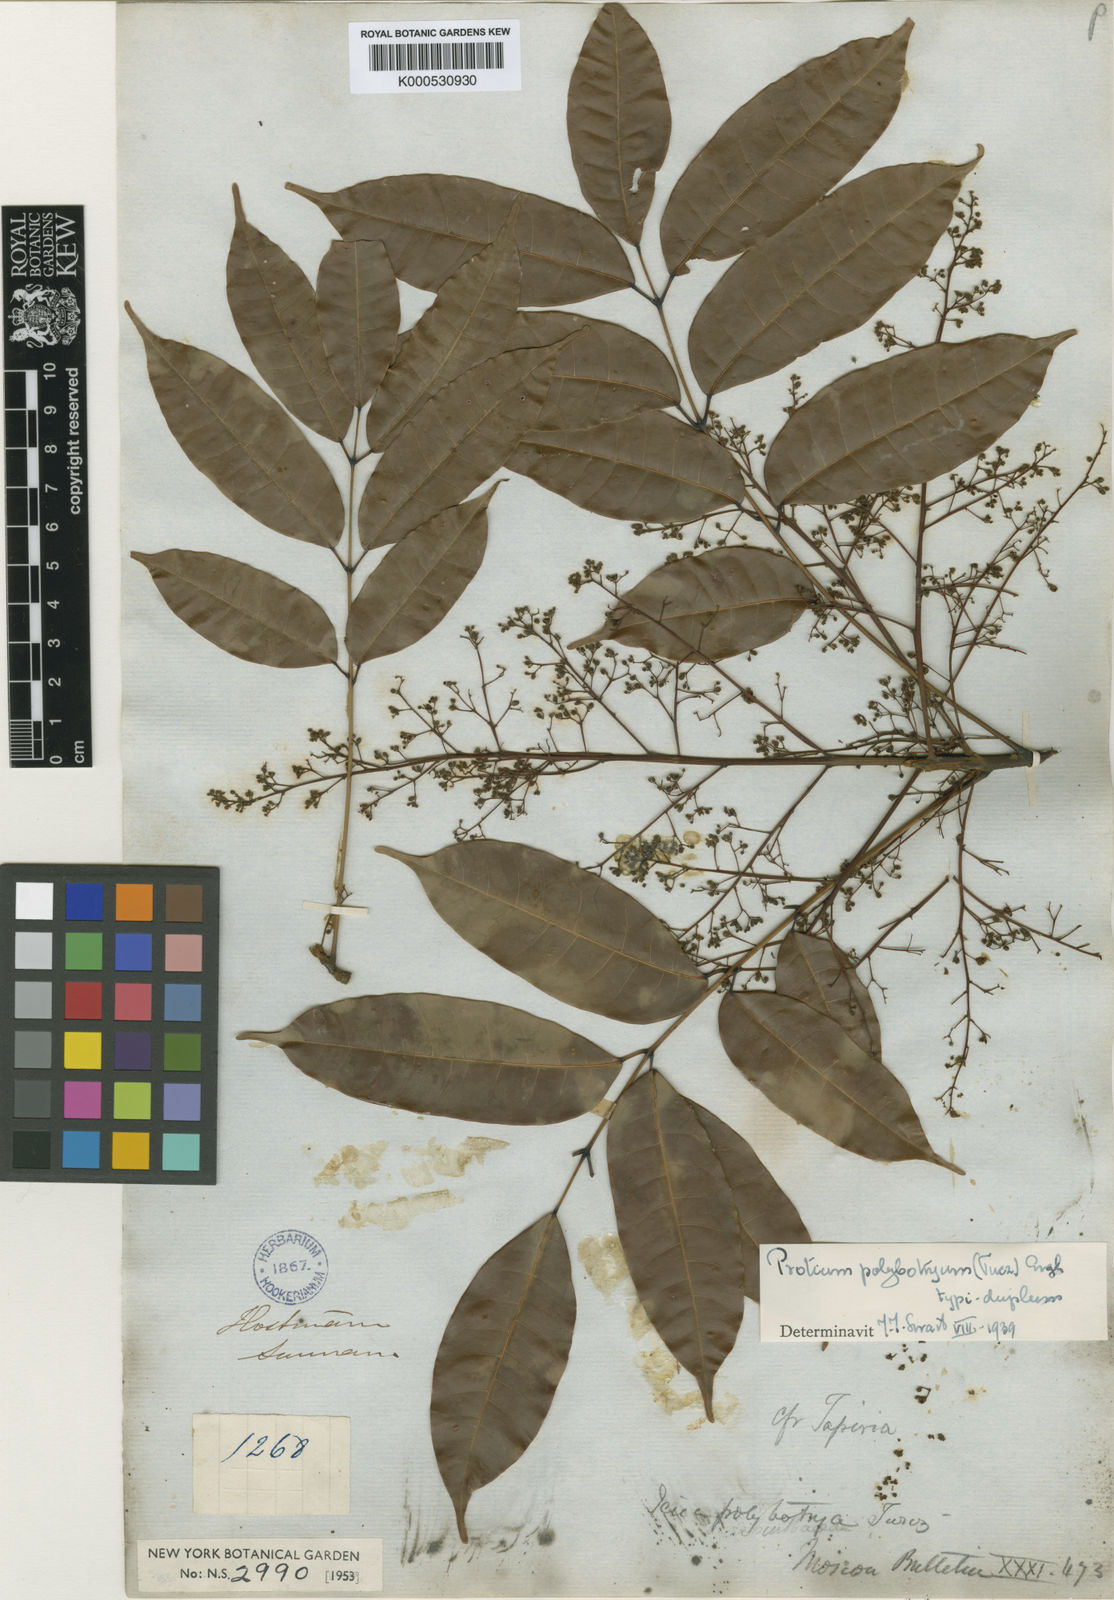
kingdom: Plantae
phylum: Tracheophyta
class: Magnoliopsida
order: Sapindales
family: Burseraceae
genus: Protium
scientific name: Protium polybotryum
